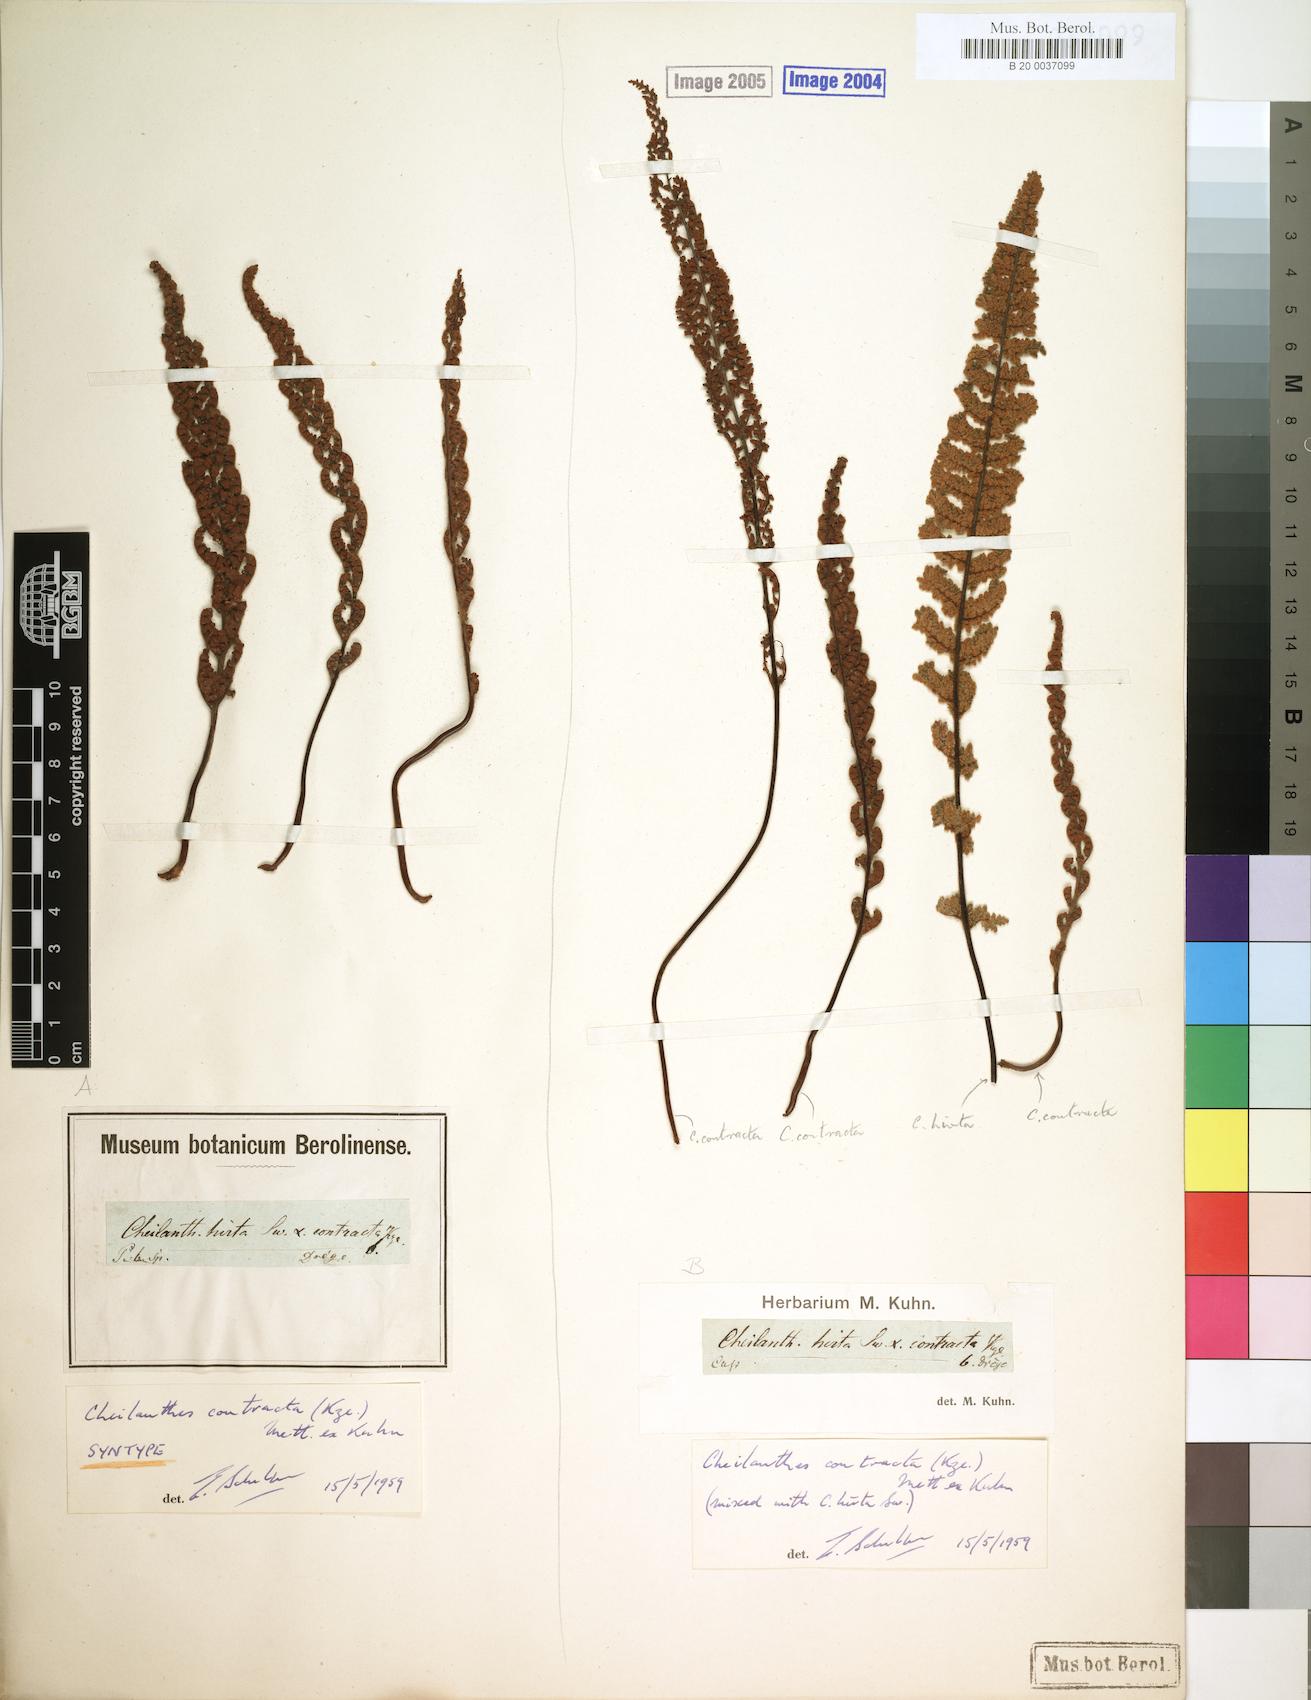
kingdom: Plantae
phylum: Tracheophyta
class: Polypodiopsida
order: Polypodiales
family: Pteridaceae
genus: Cheilanthes
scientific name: Cheilanthes contracta
